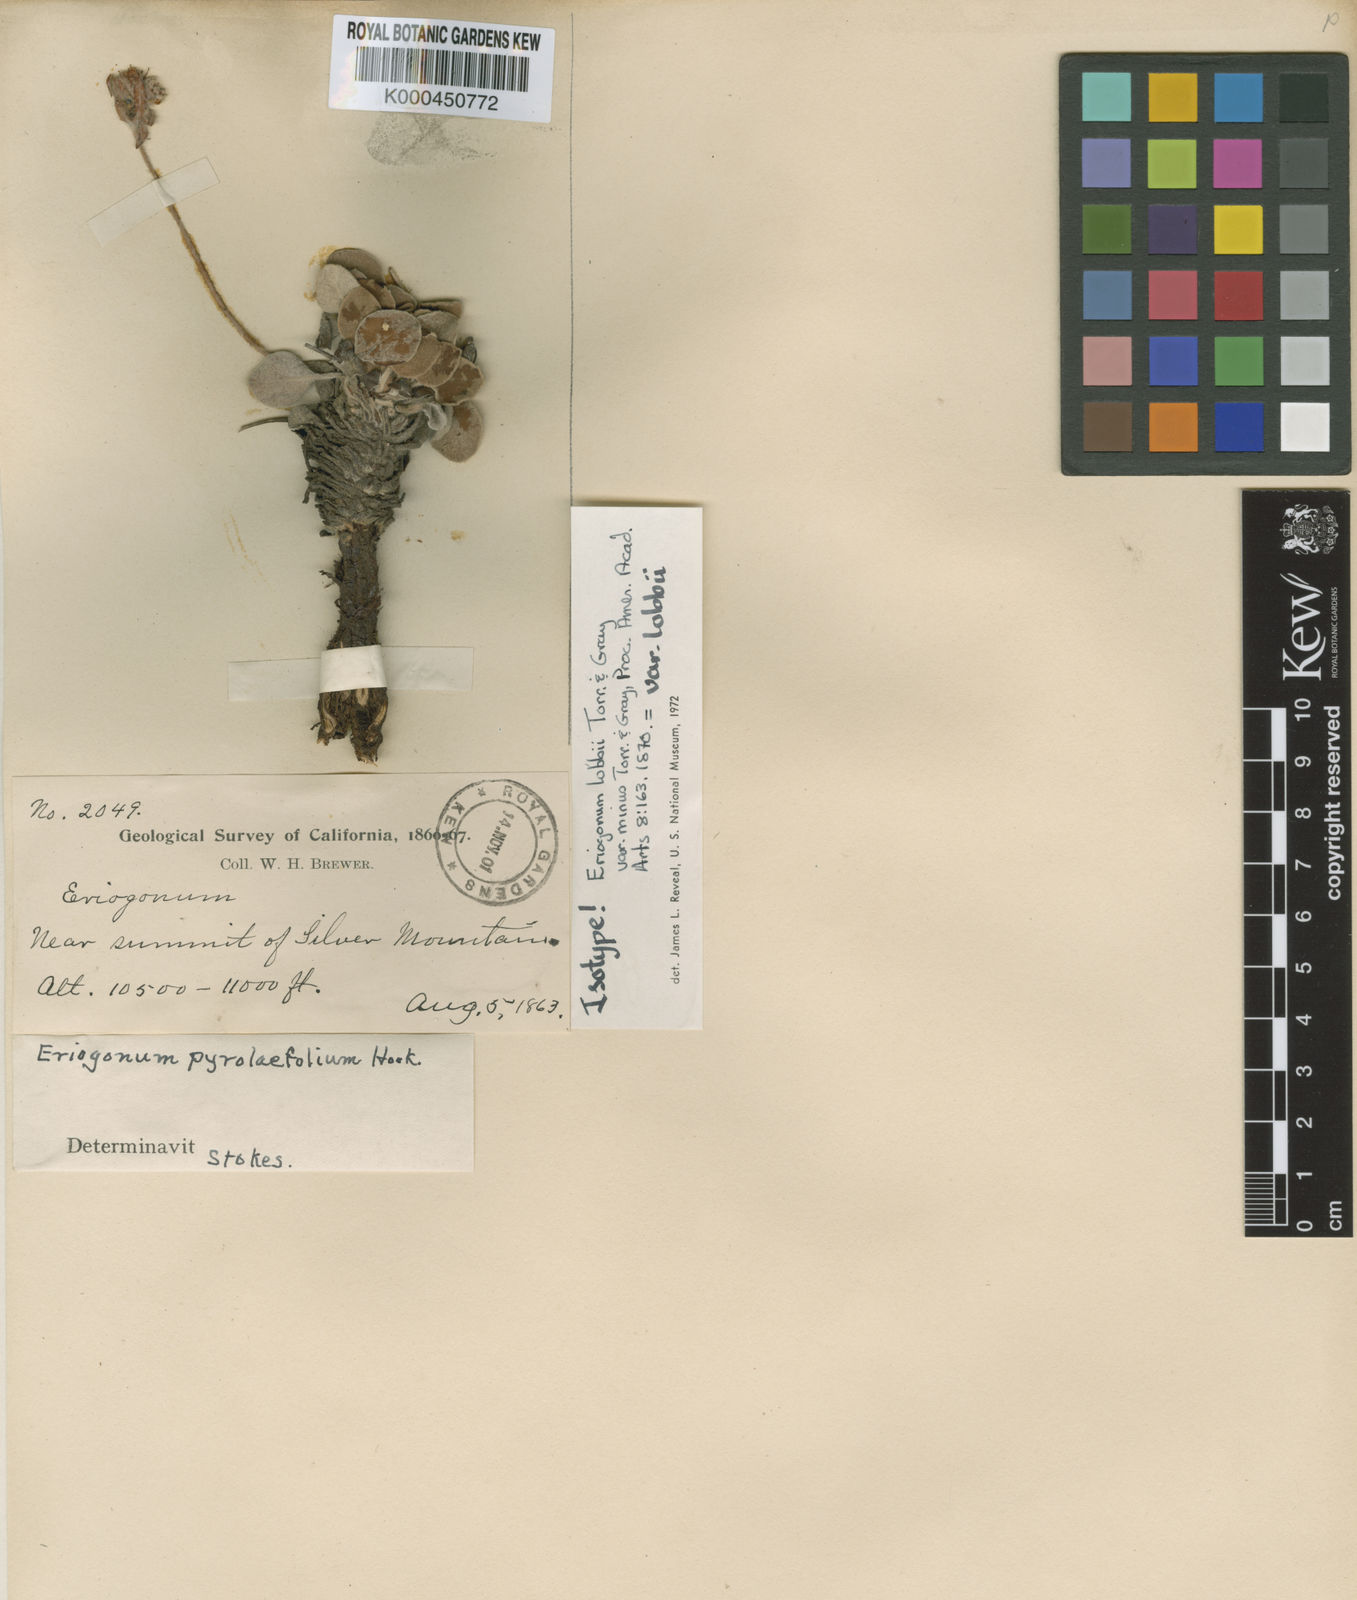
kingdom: Plantae
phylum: Tracheophyta
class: Magnoliopsida
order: Caryophyllales
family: Polygonaceae
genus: Eriogonum
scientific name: Eriogonum lobbii
